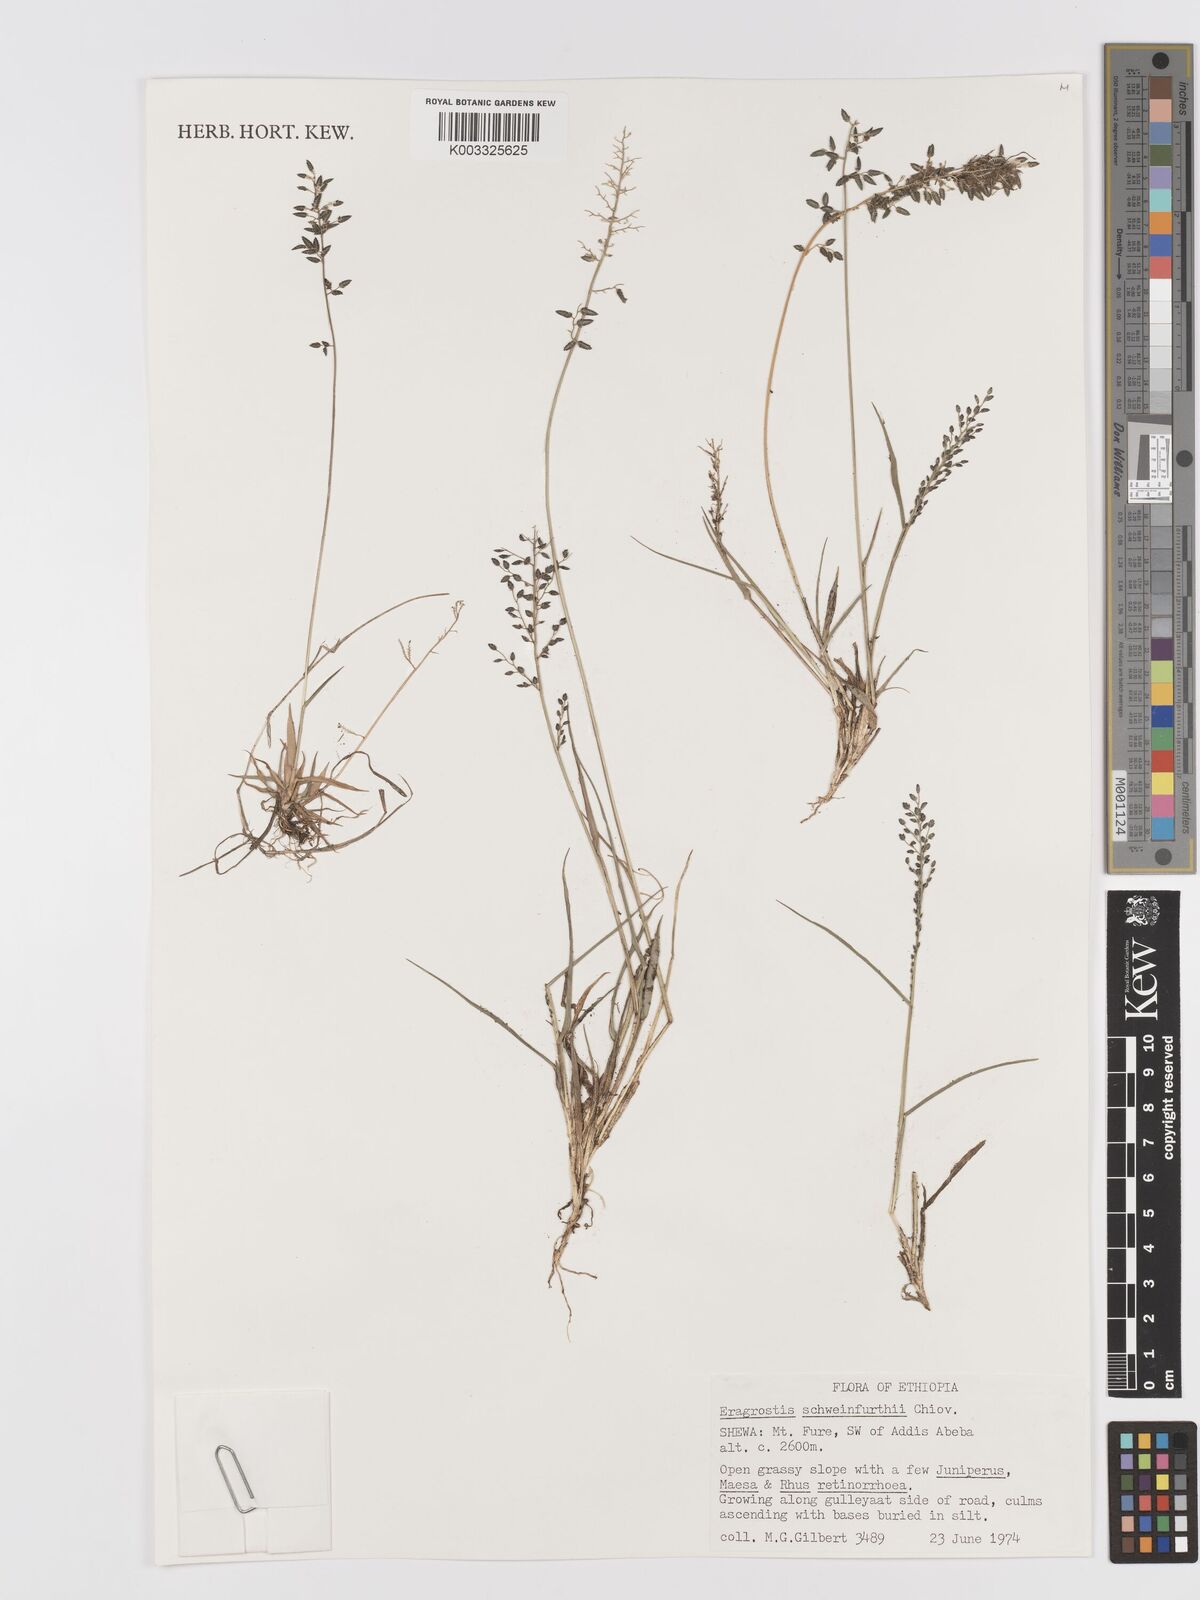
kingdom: Plantae
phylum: Tracheophyta
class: Liliopsida
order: Poales
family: Poaceae
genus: Eragrostis
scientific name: Eragrostis schweinfurthii
